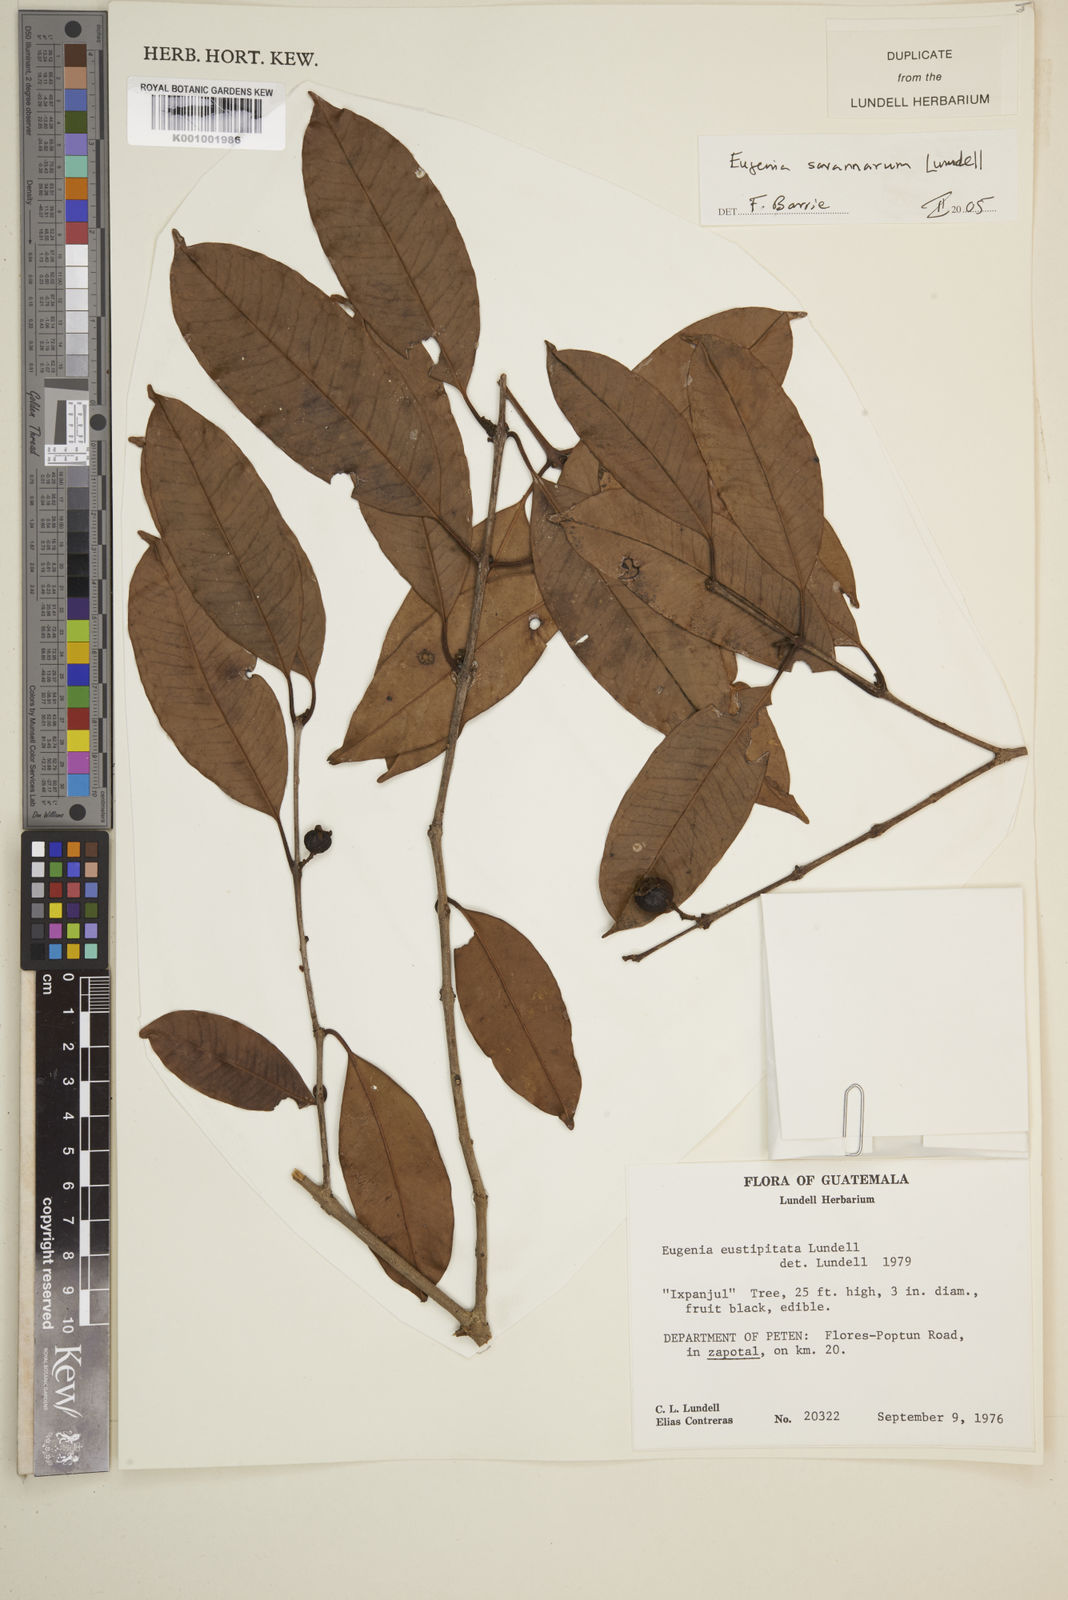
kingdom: Plantae
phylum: Tracheophyta
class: Magnoliopsida
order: Myrtales
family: Myrtaceae
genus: Eugenia
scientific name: Eugenia savannarum
